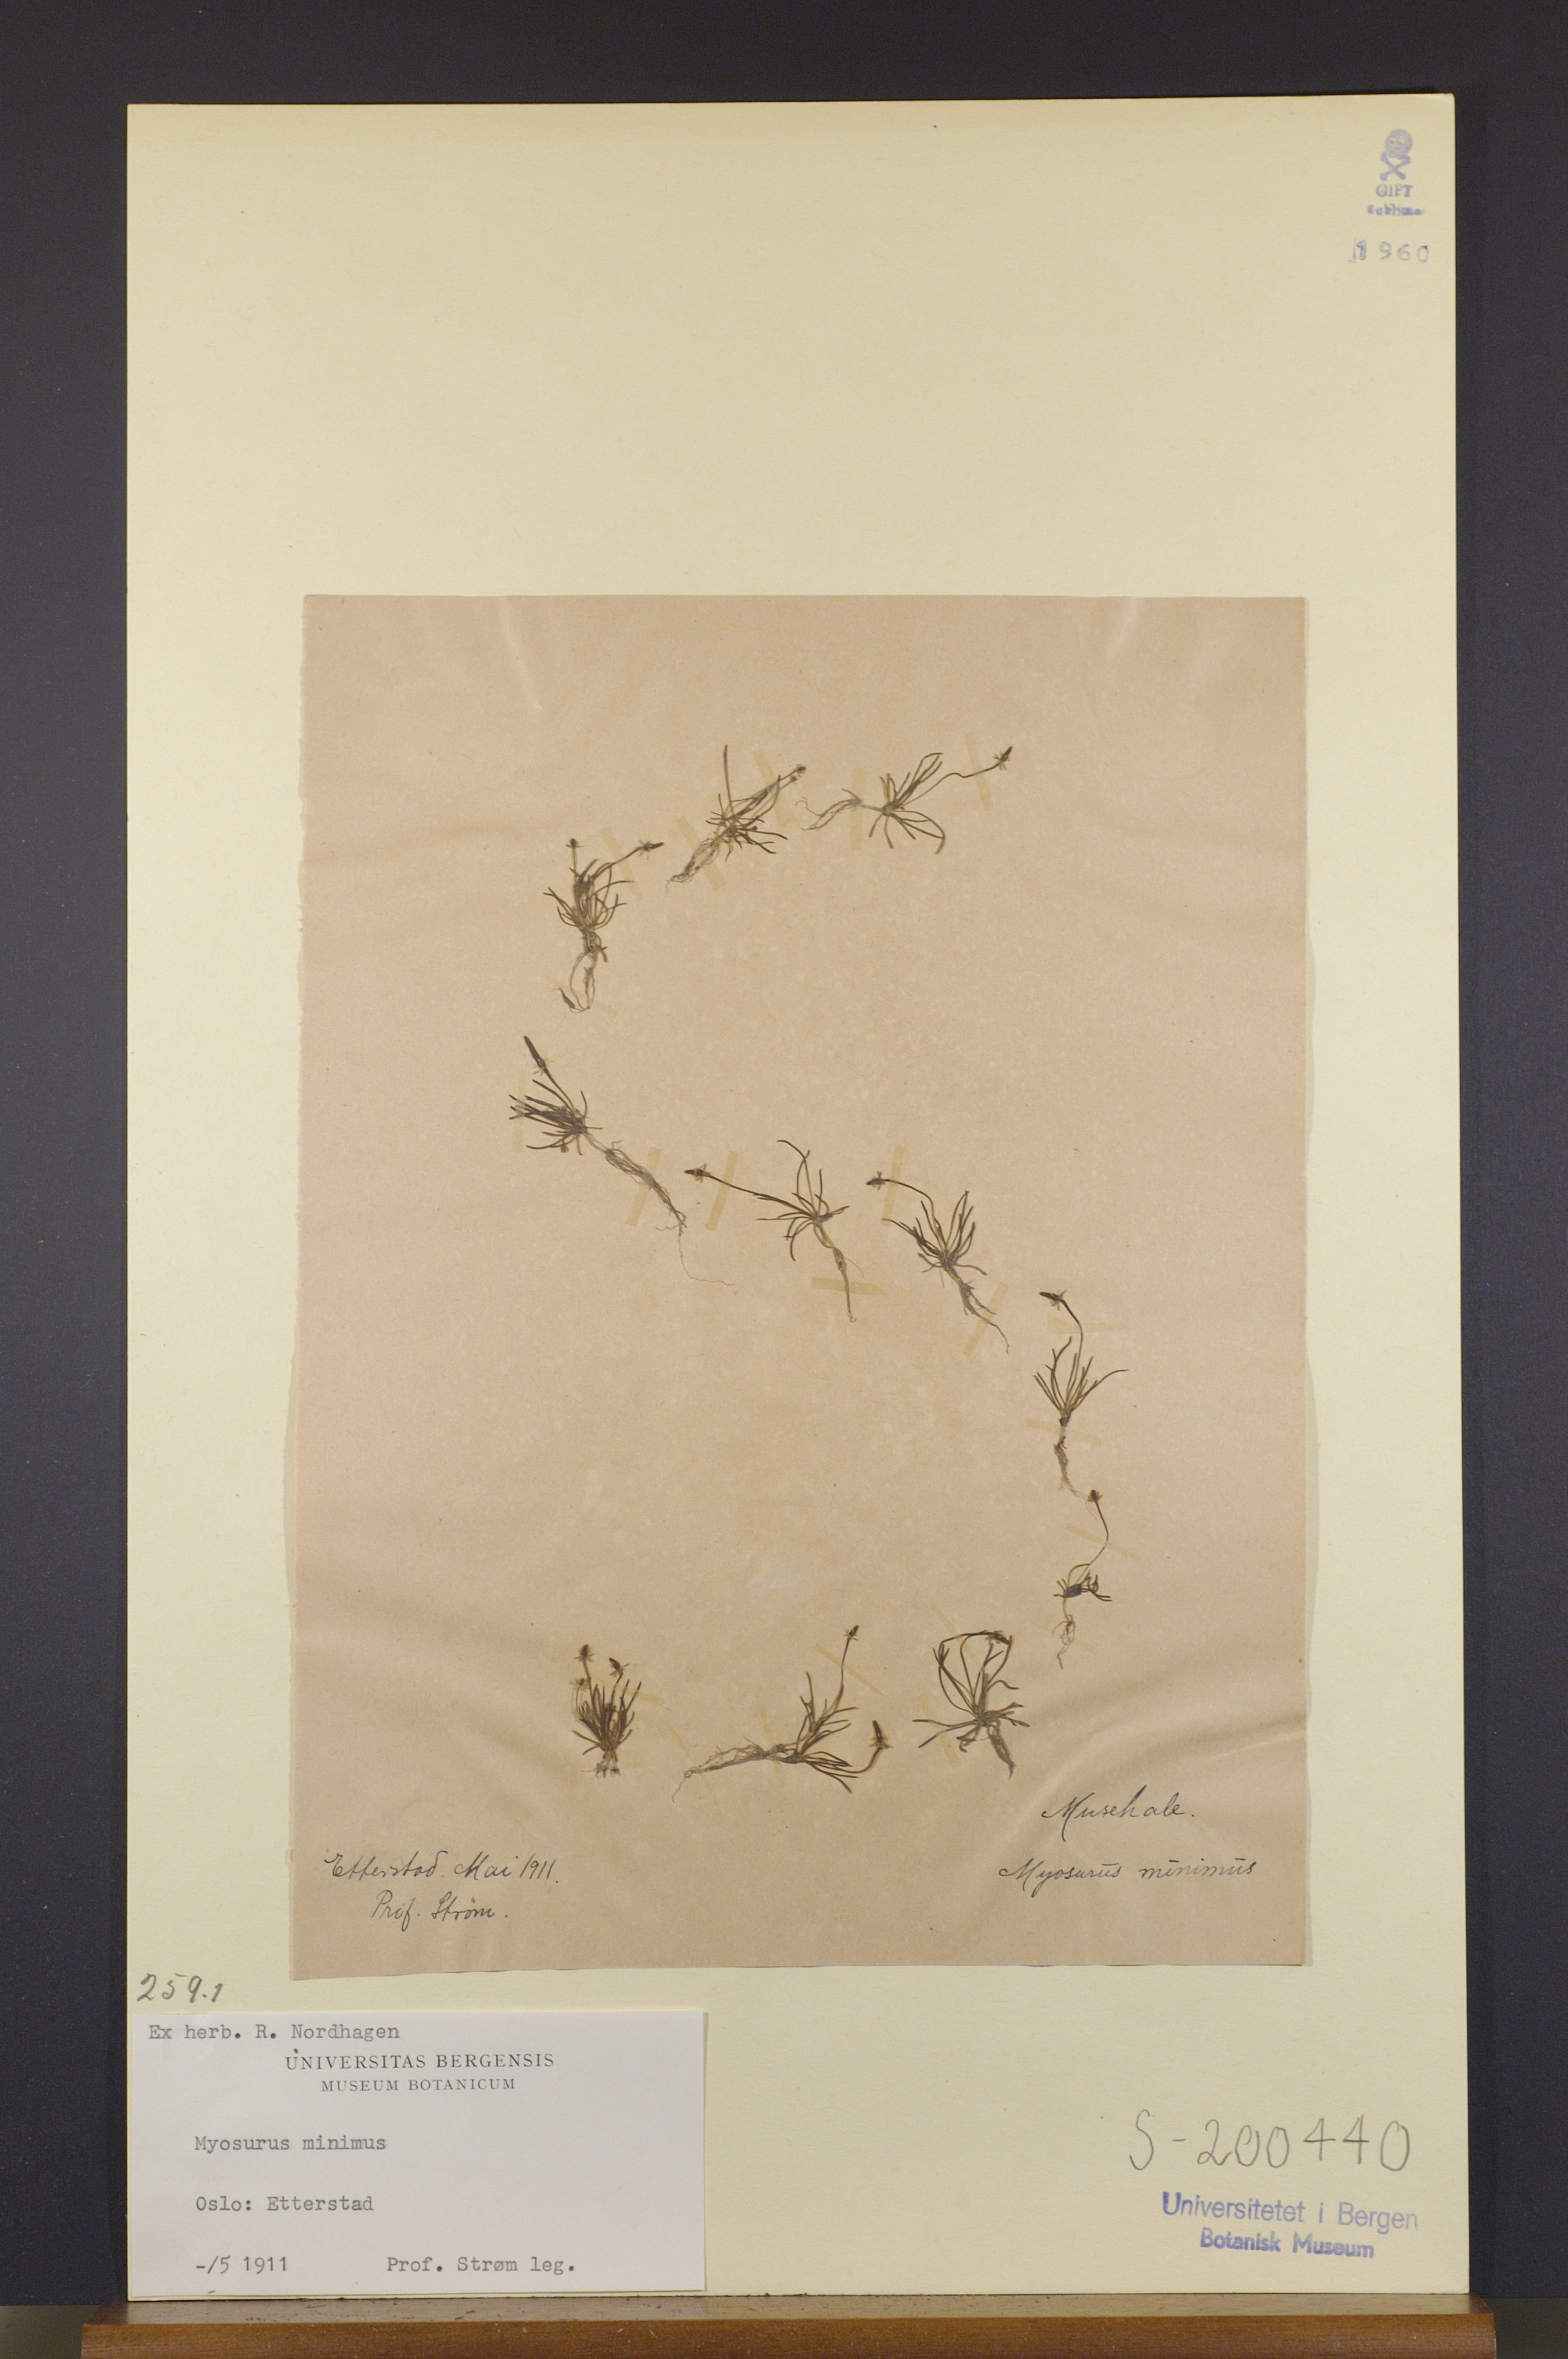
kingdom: Plantae
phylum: Tracheophyta
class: Magnoliopsida
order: Ranunculales
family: Ranunculaceae
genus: Myosurus
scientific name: Myosurus minimus
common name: Mousetail
